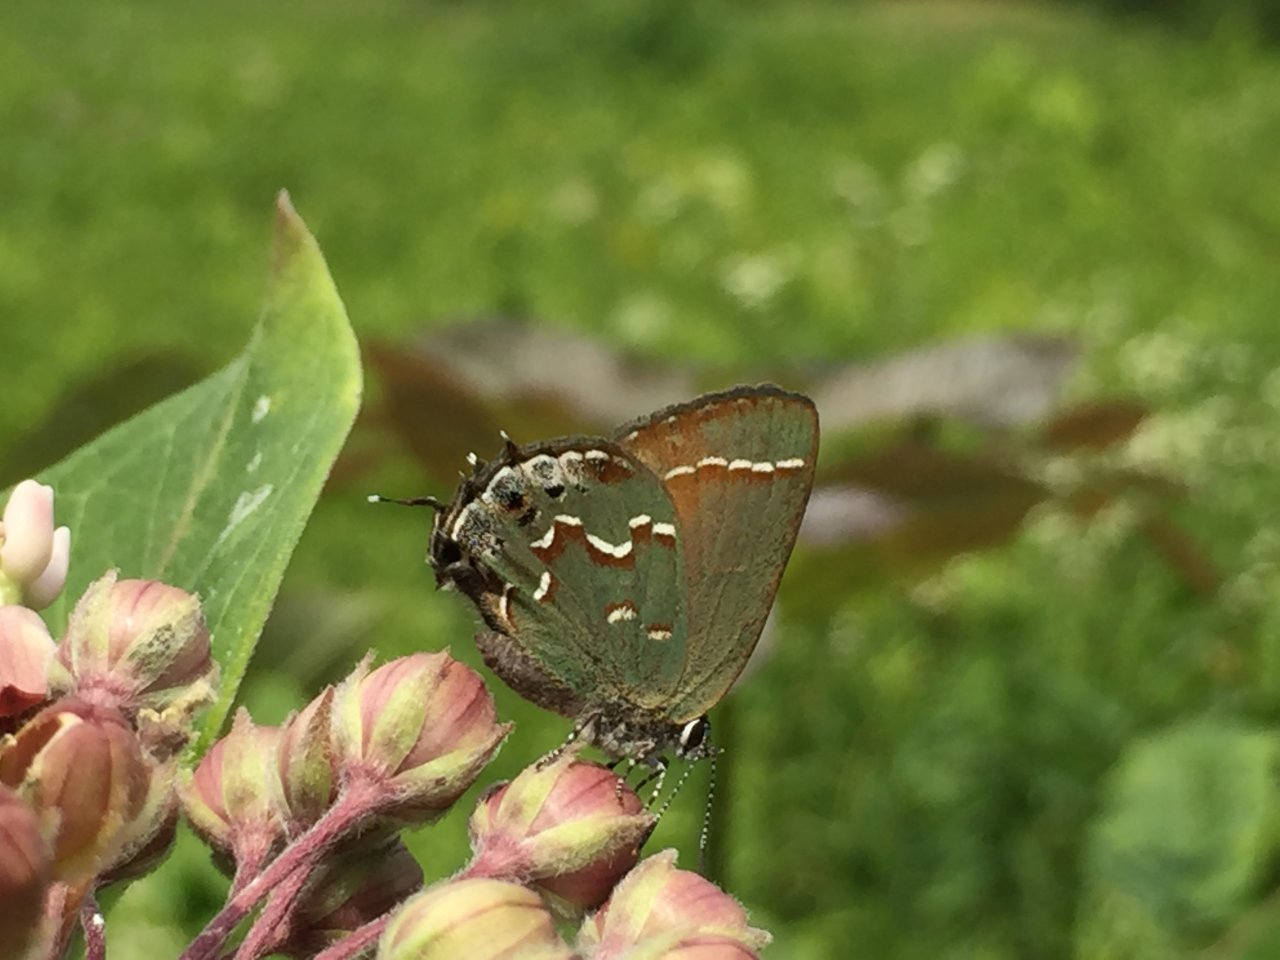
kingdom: Animalia
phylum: Arthropoda
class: Insecta
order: Lepidoptera
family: Lycaenidae
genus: Mitoura
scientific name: Mitoura gryneus
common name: Juniper Hairstreak
